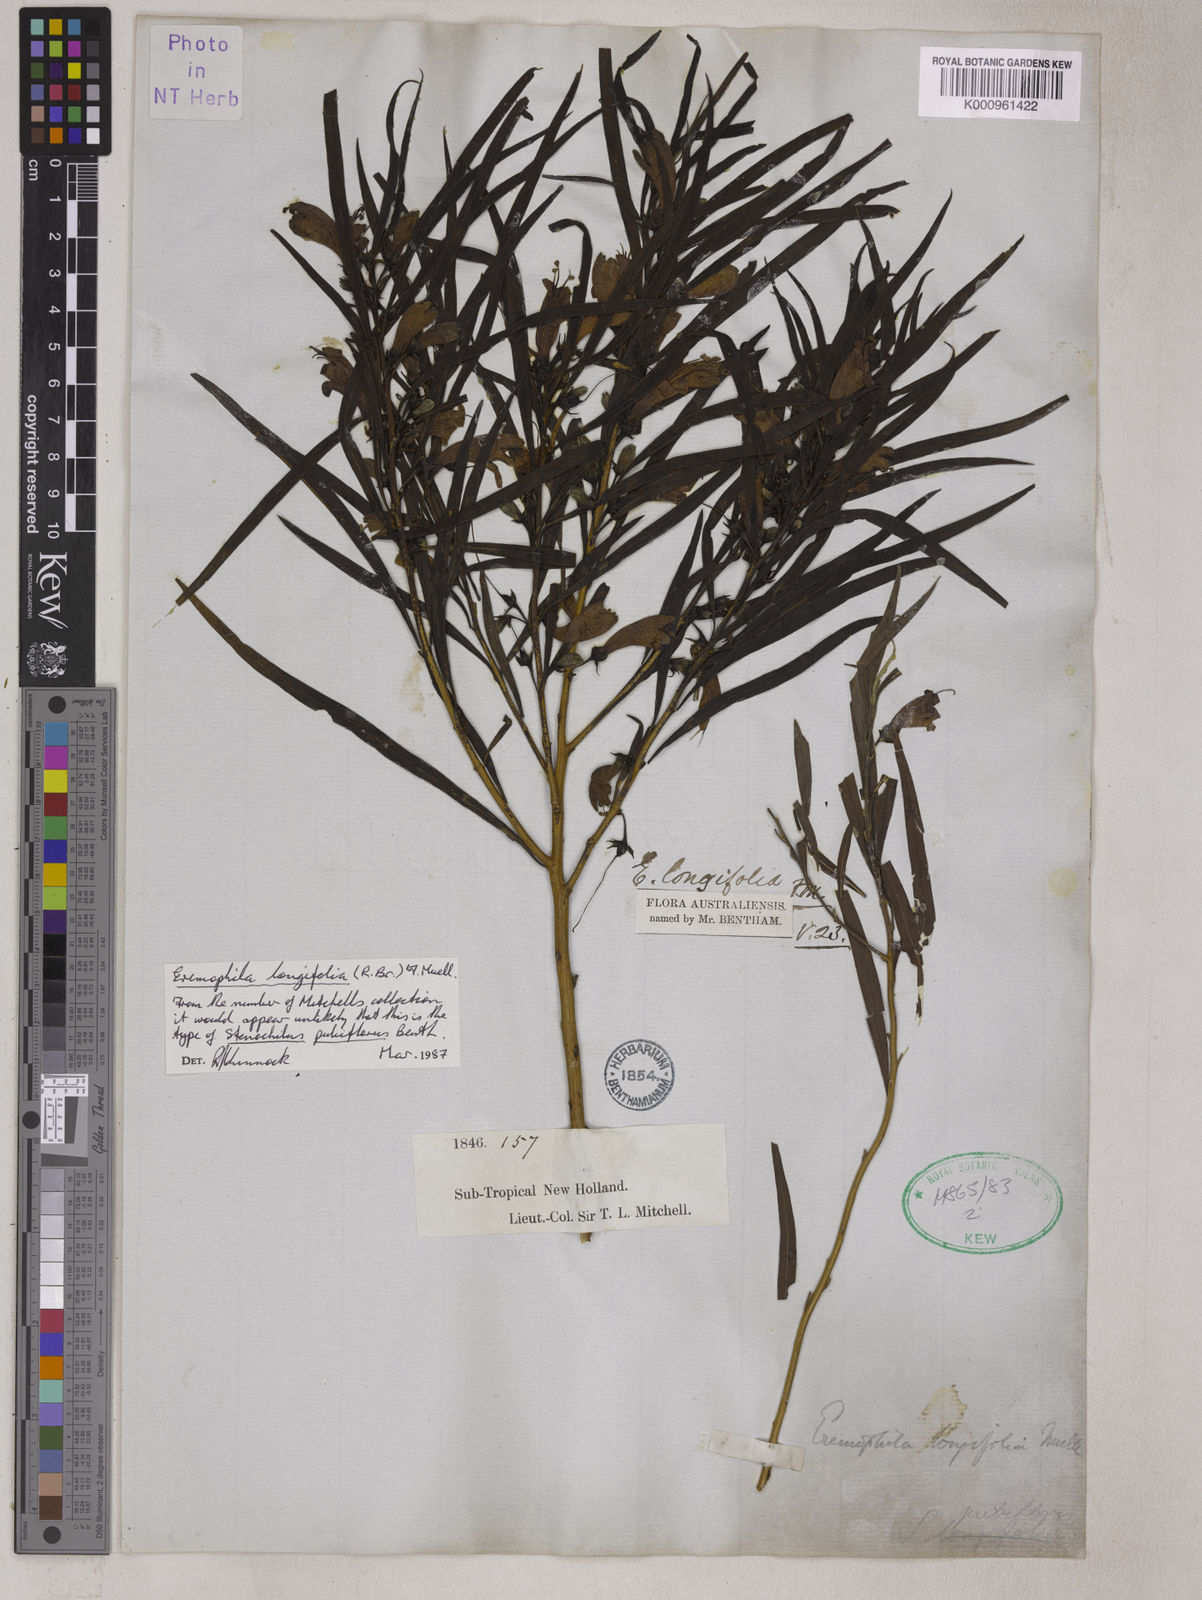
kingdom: Plantae
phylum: Tracheophyta
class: Magnoliopsida
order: Lamiales
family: Scrophulariaceae
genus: Eremophila
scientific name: Eremophila longifolia
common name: Longleaf emubush
